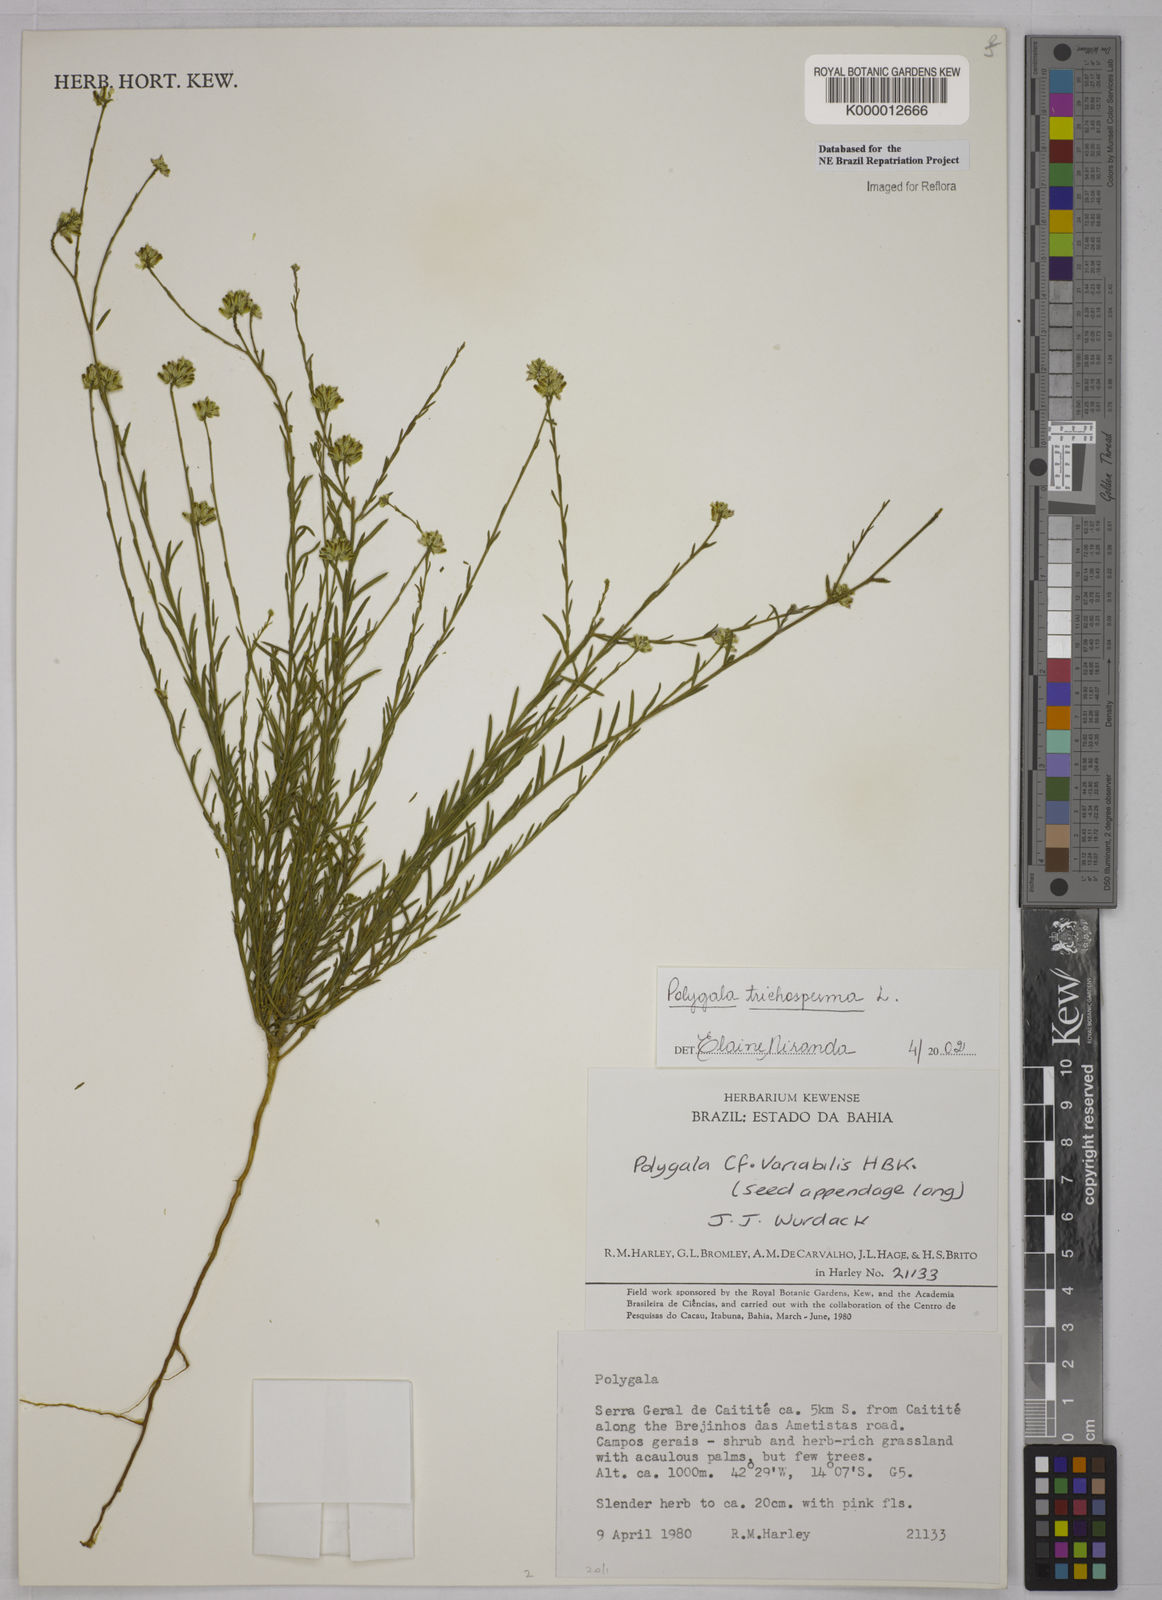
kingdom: Plantae
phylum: Tracheophyta
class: Magnoliopsida
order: Fabales
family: Polygalaceae
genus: Polygala
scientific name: Polygala
